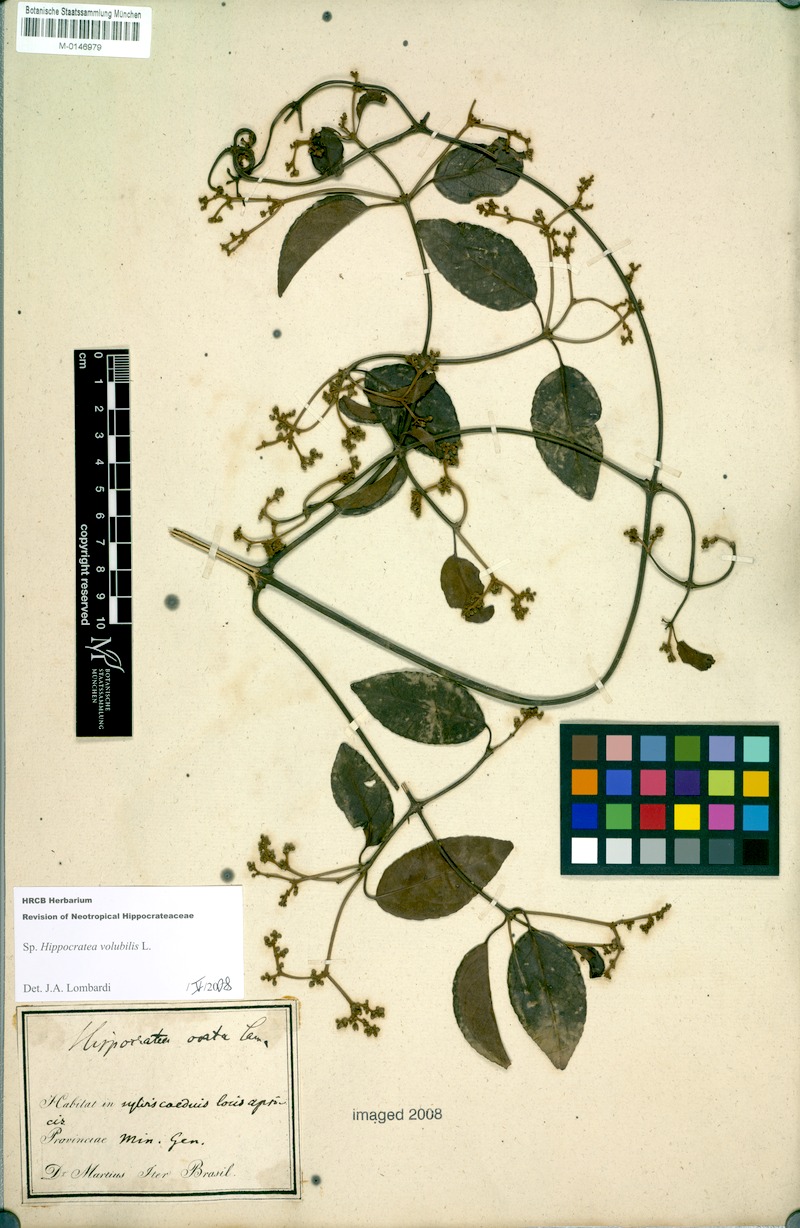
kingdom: Plantae
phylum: Tracheophyta
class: Magnoliopsida
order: Celastrales
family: Celastraceae
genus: Hippocratea
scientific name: Hippocratea volubilis
